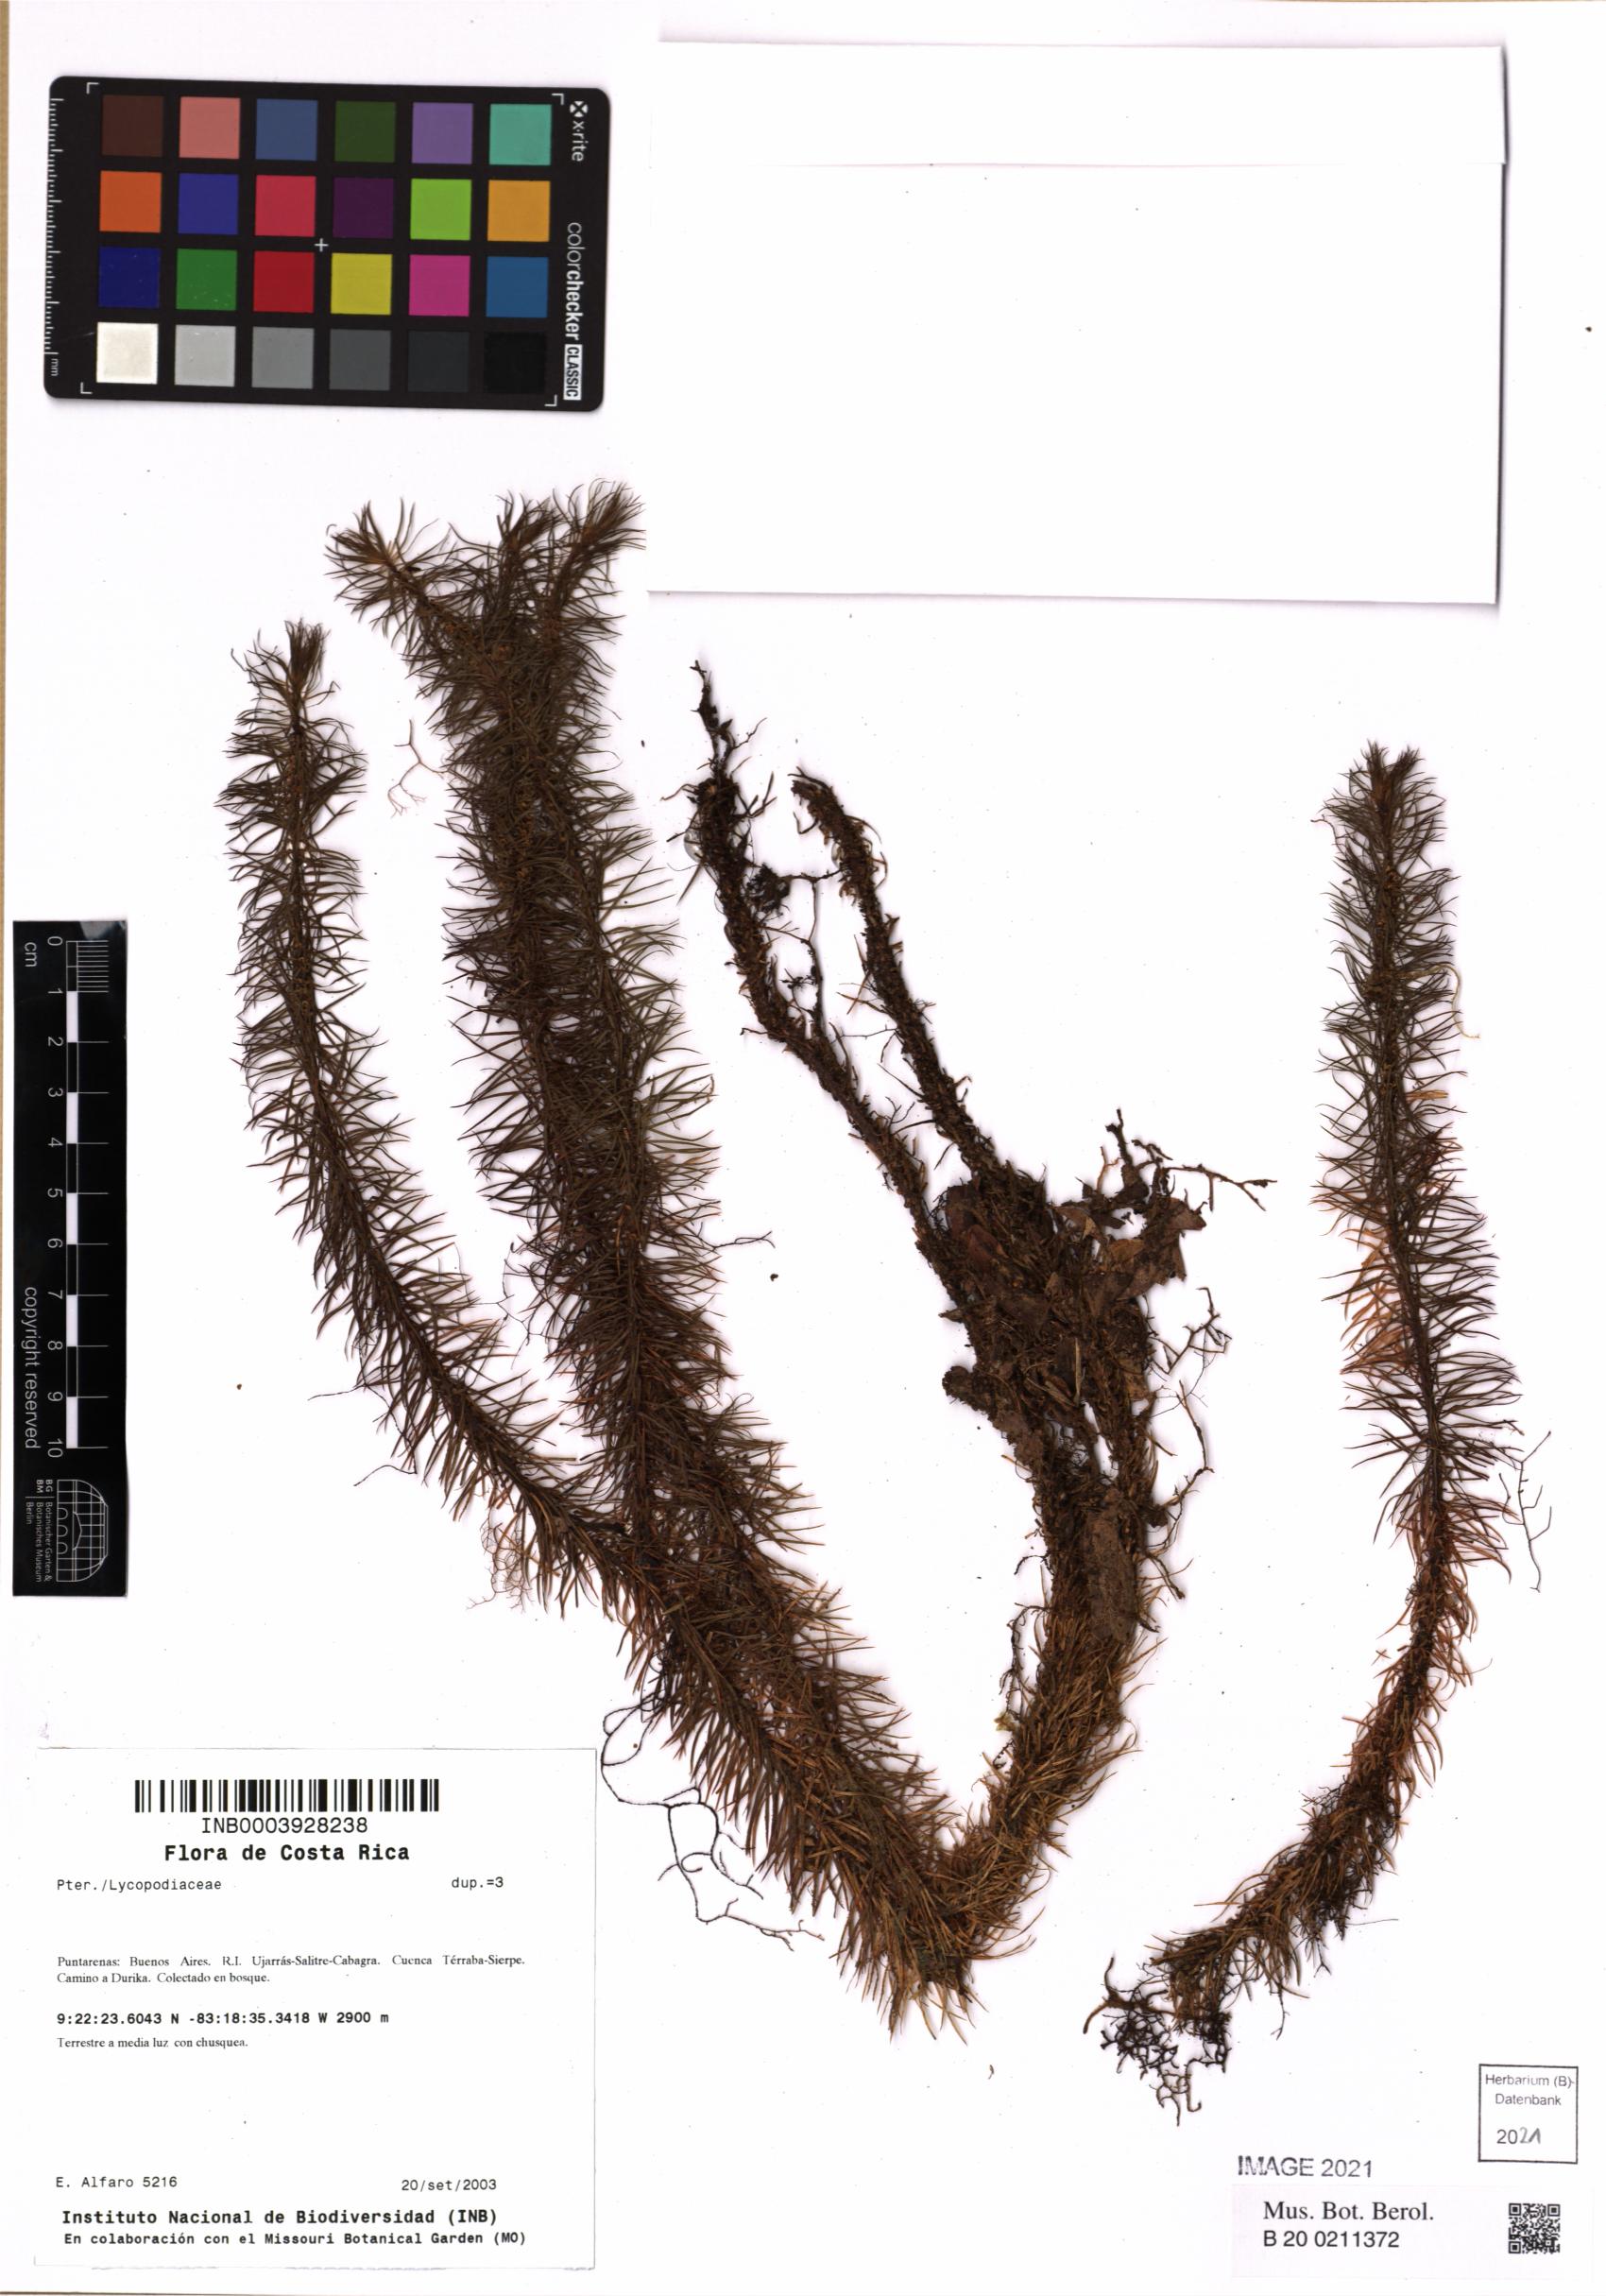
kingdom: Plantae
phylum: Tracheophyta
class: Lycopodiopsida
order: Lycopodiales
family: Lycopodiaceae
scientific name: Lycopodiaceae
